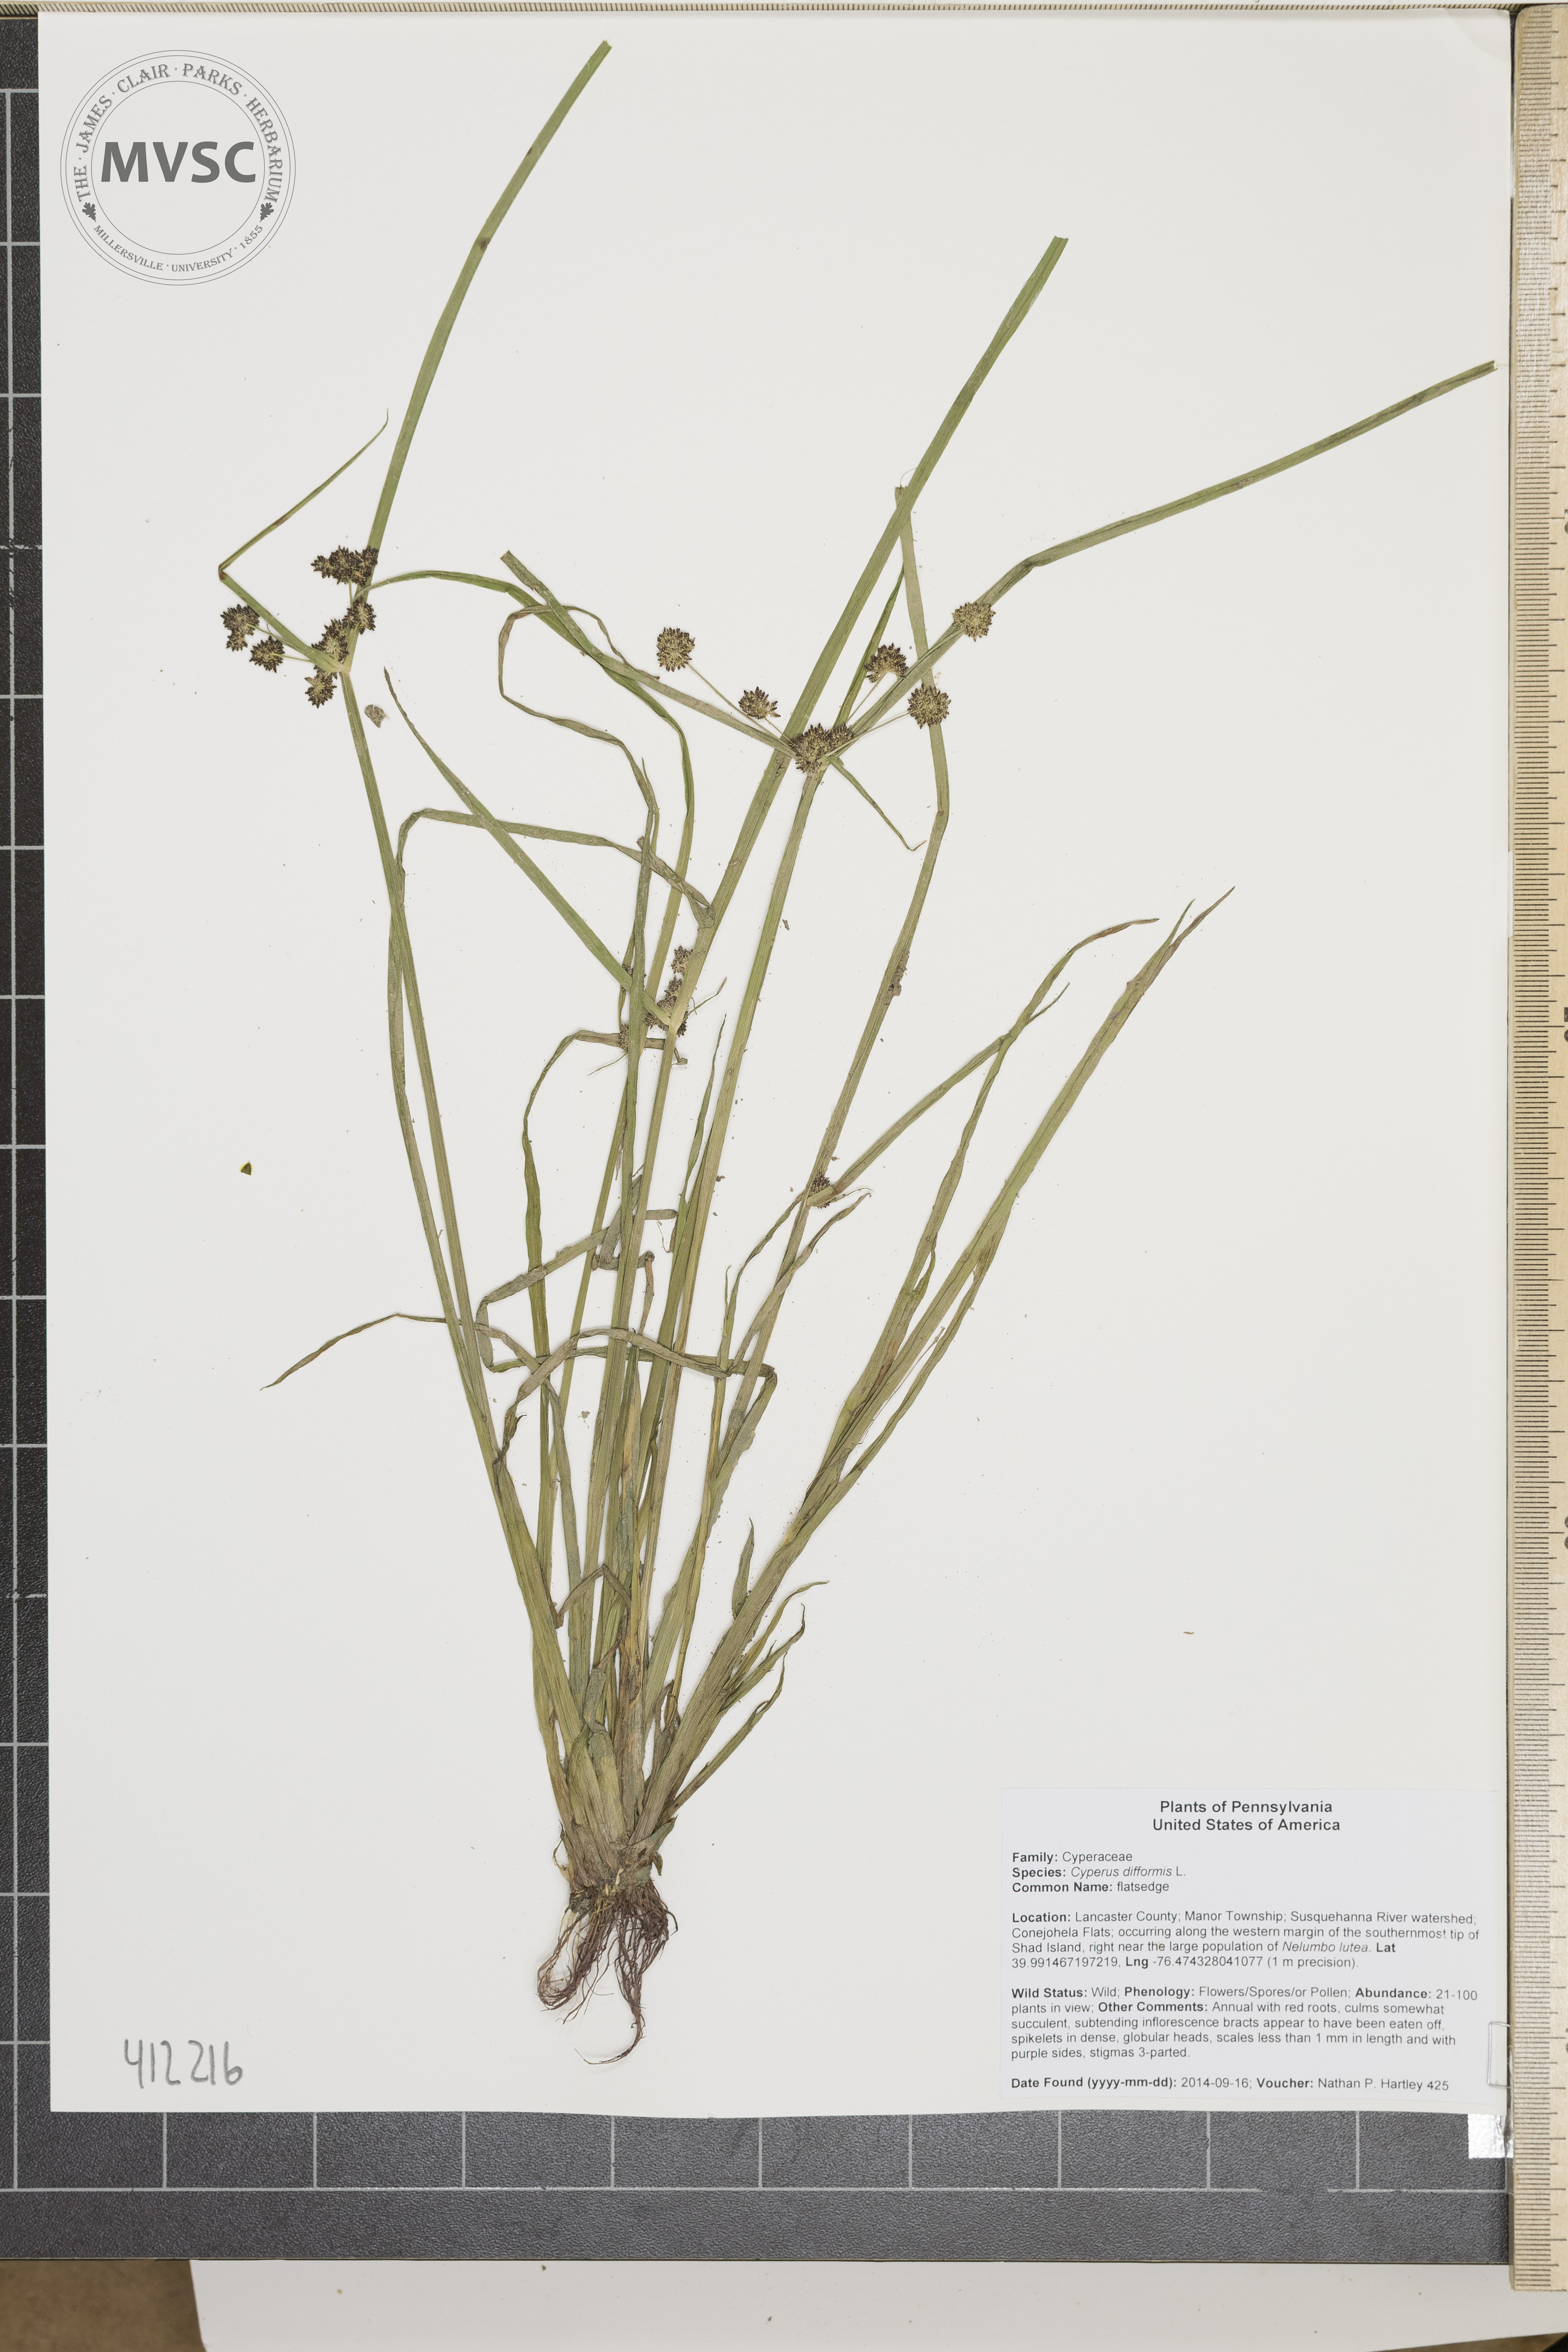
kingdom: Plantae
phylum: Tracheophyta
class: Liliopsida
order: Poales
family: Cyperaceae
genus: Cyperus
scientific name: Cyperus difformis
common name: flatsedge
